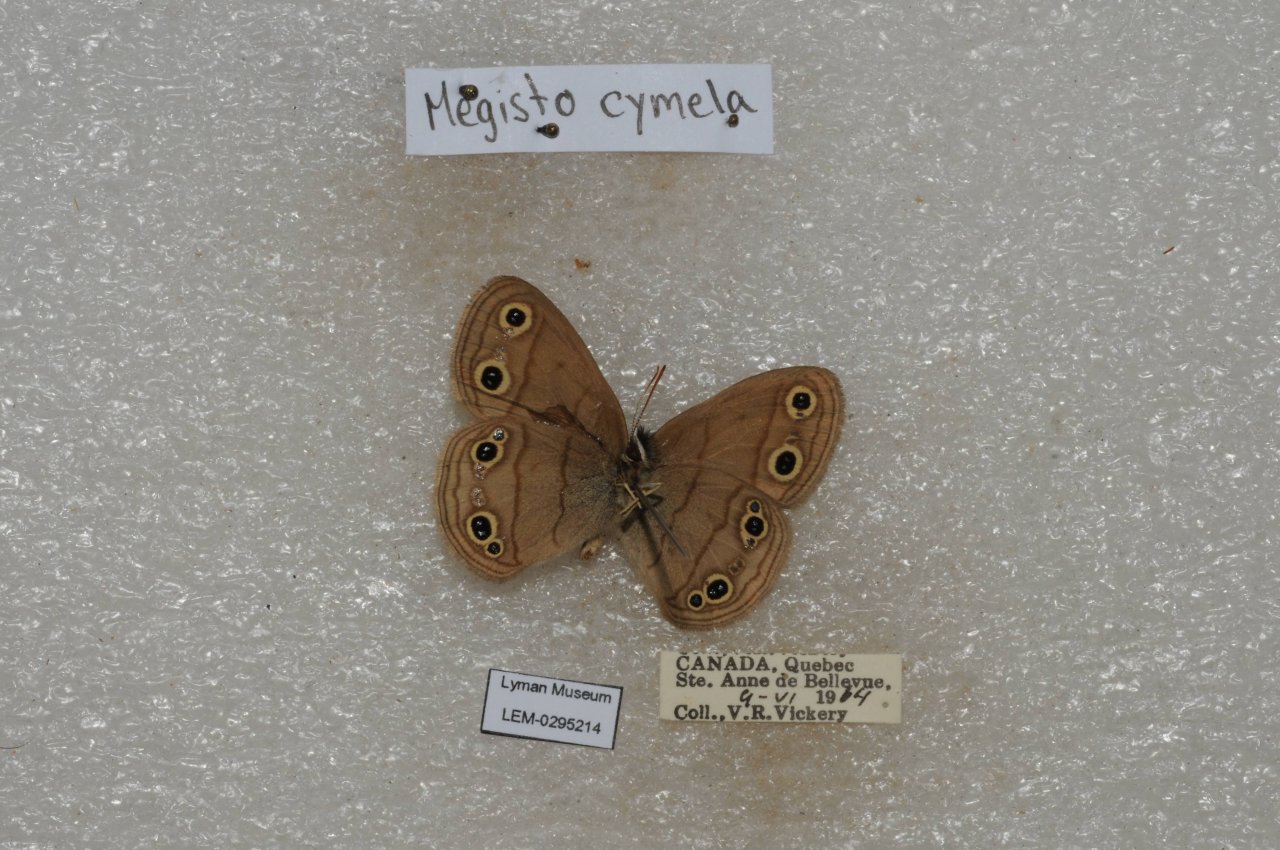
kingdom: Animalia
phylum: Arthropoda
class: Insecta
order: Lepidoptera
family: Nymphalidae
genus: Euptychia
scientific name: Euptychia cymela
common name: Little Wood Satyr
